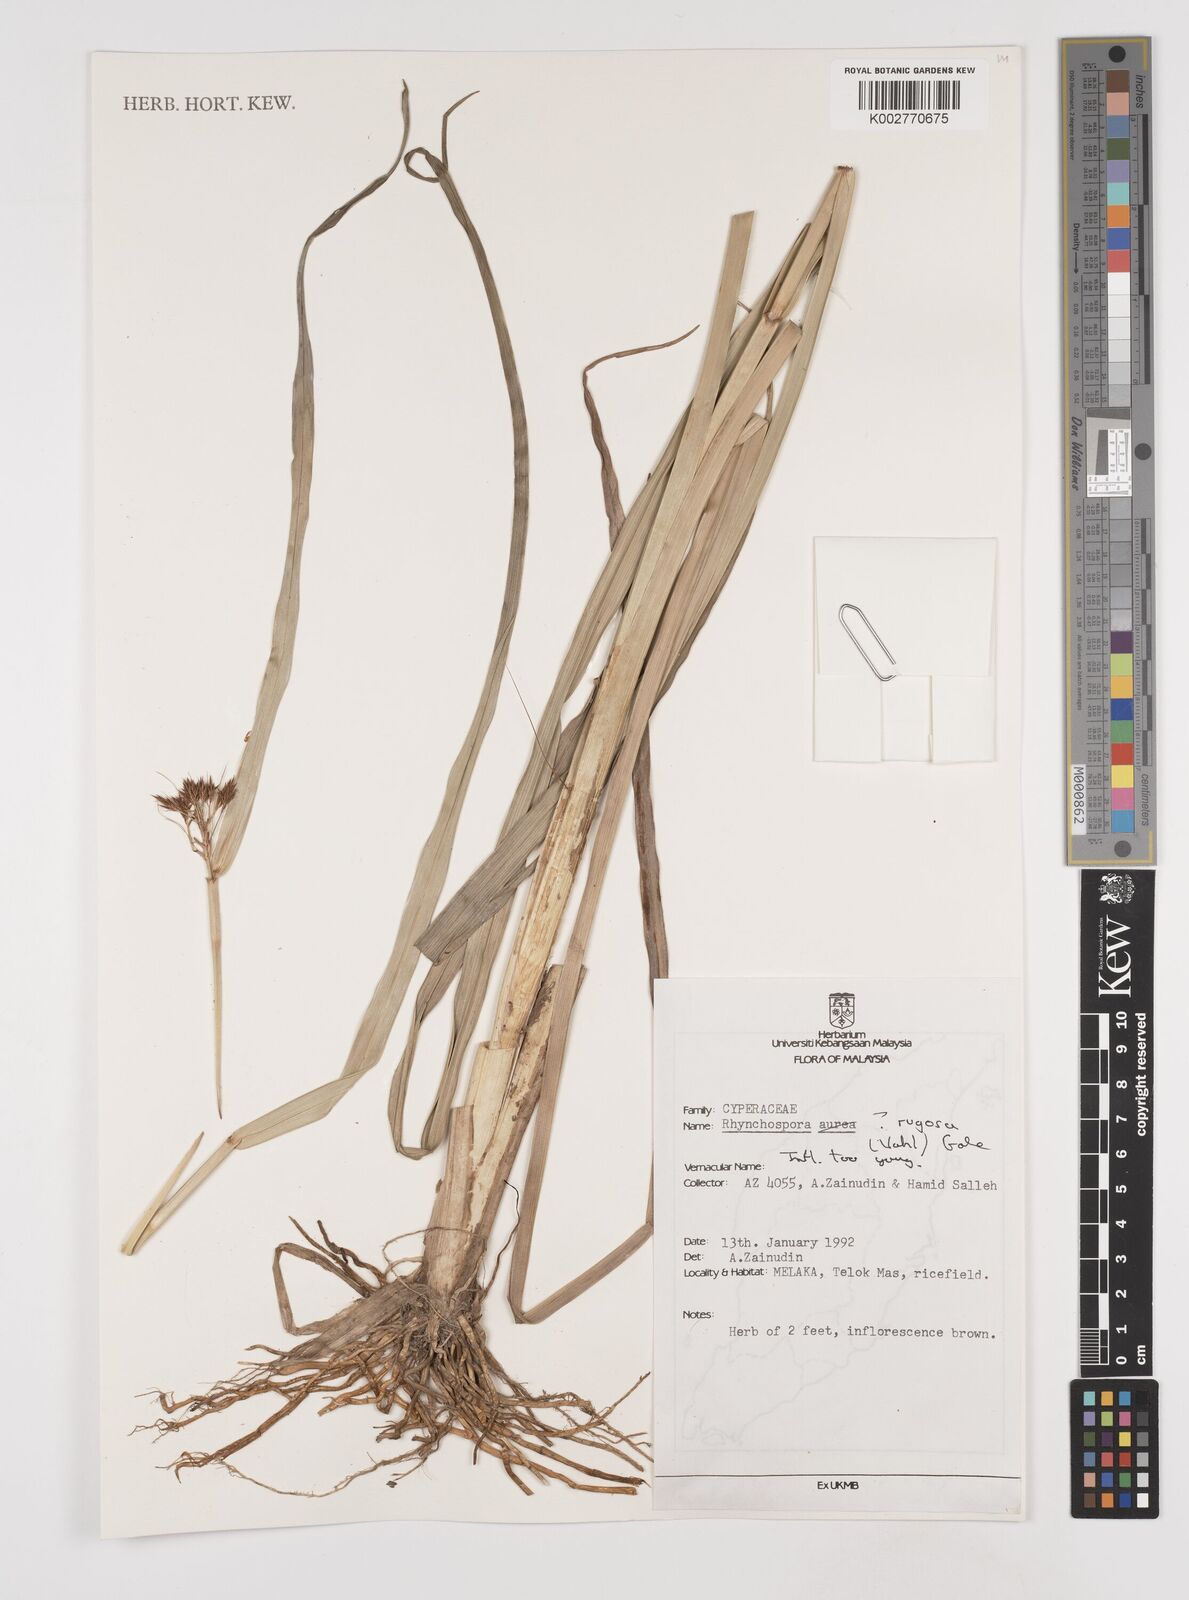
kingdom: Plantae
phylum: Tracheophyta
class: Liliopsida
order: Poales
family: Cyperaceae
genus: Rhynchospora
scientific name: Rhynchospora rugosa
